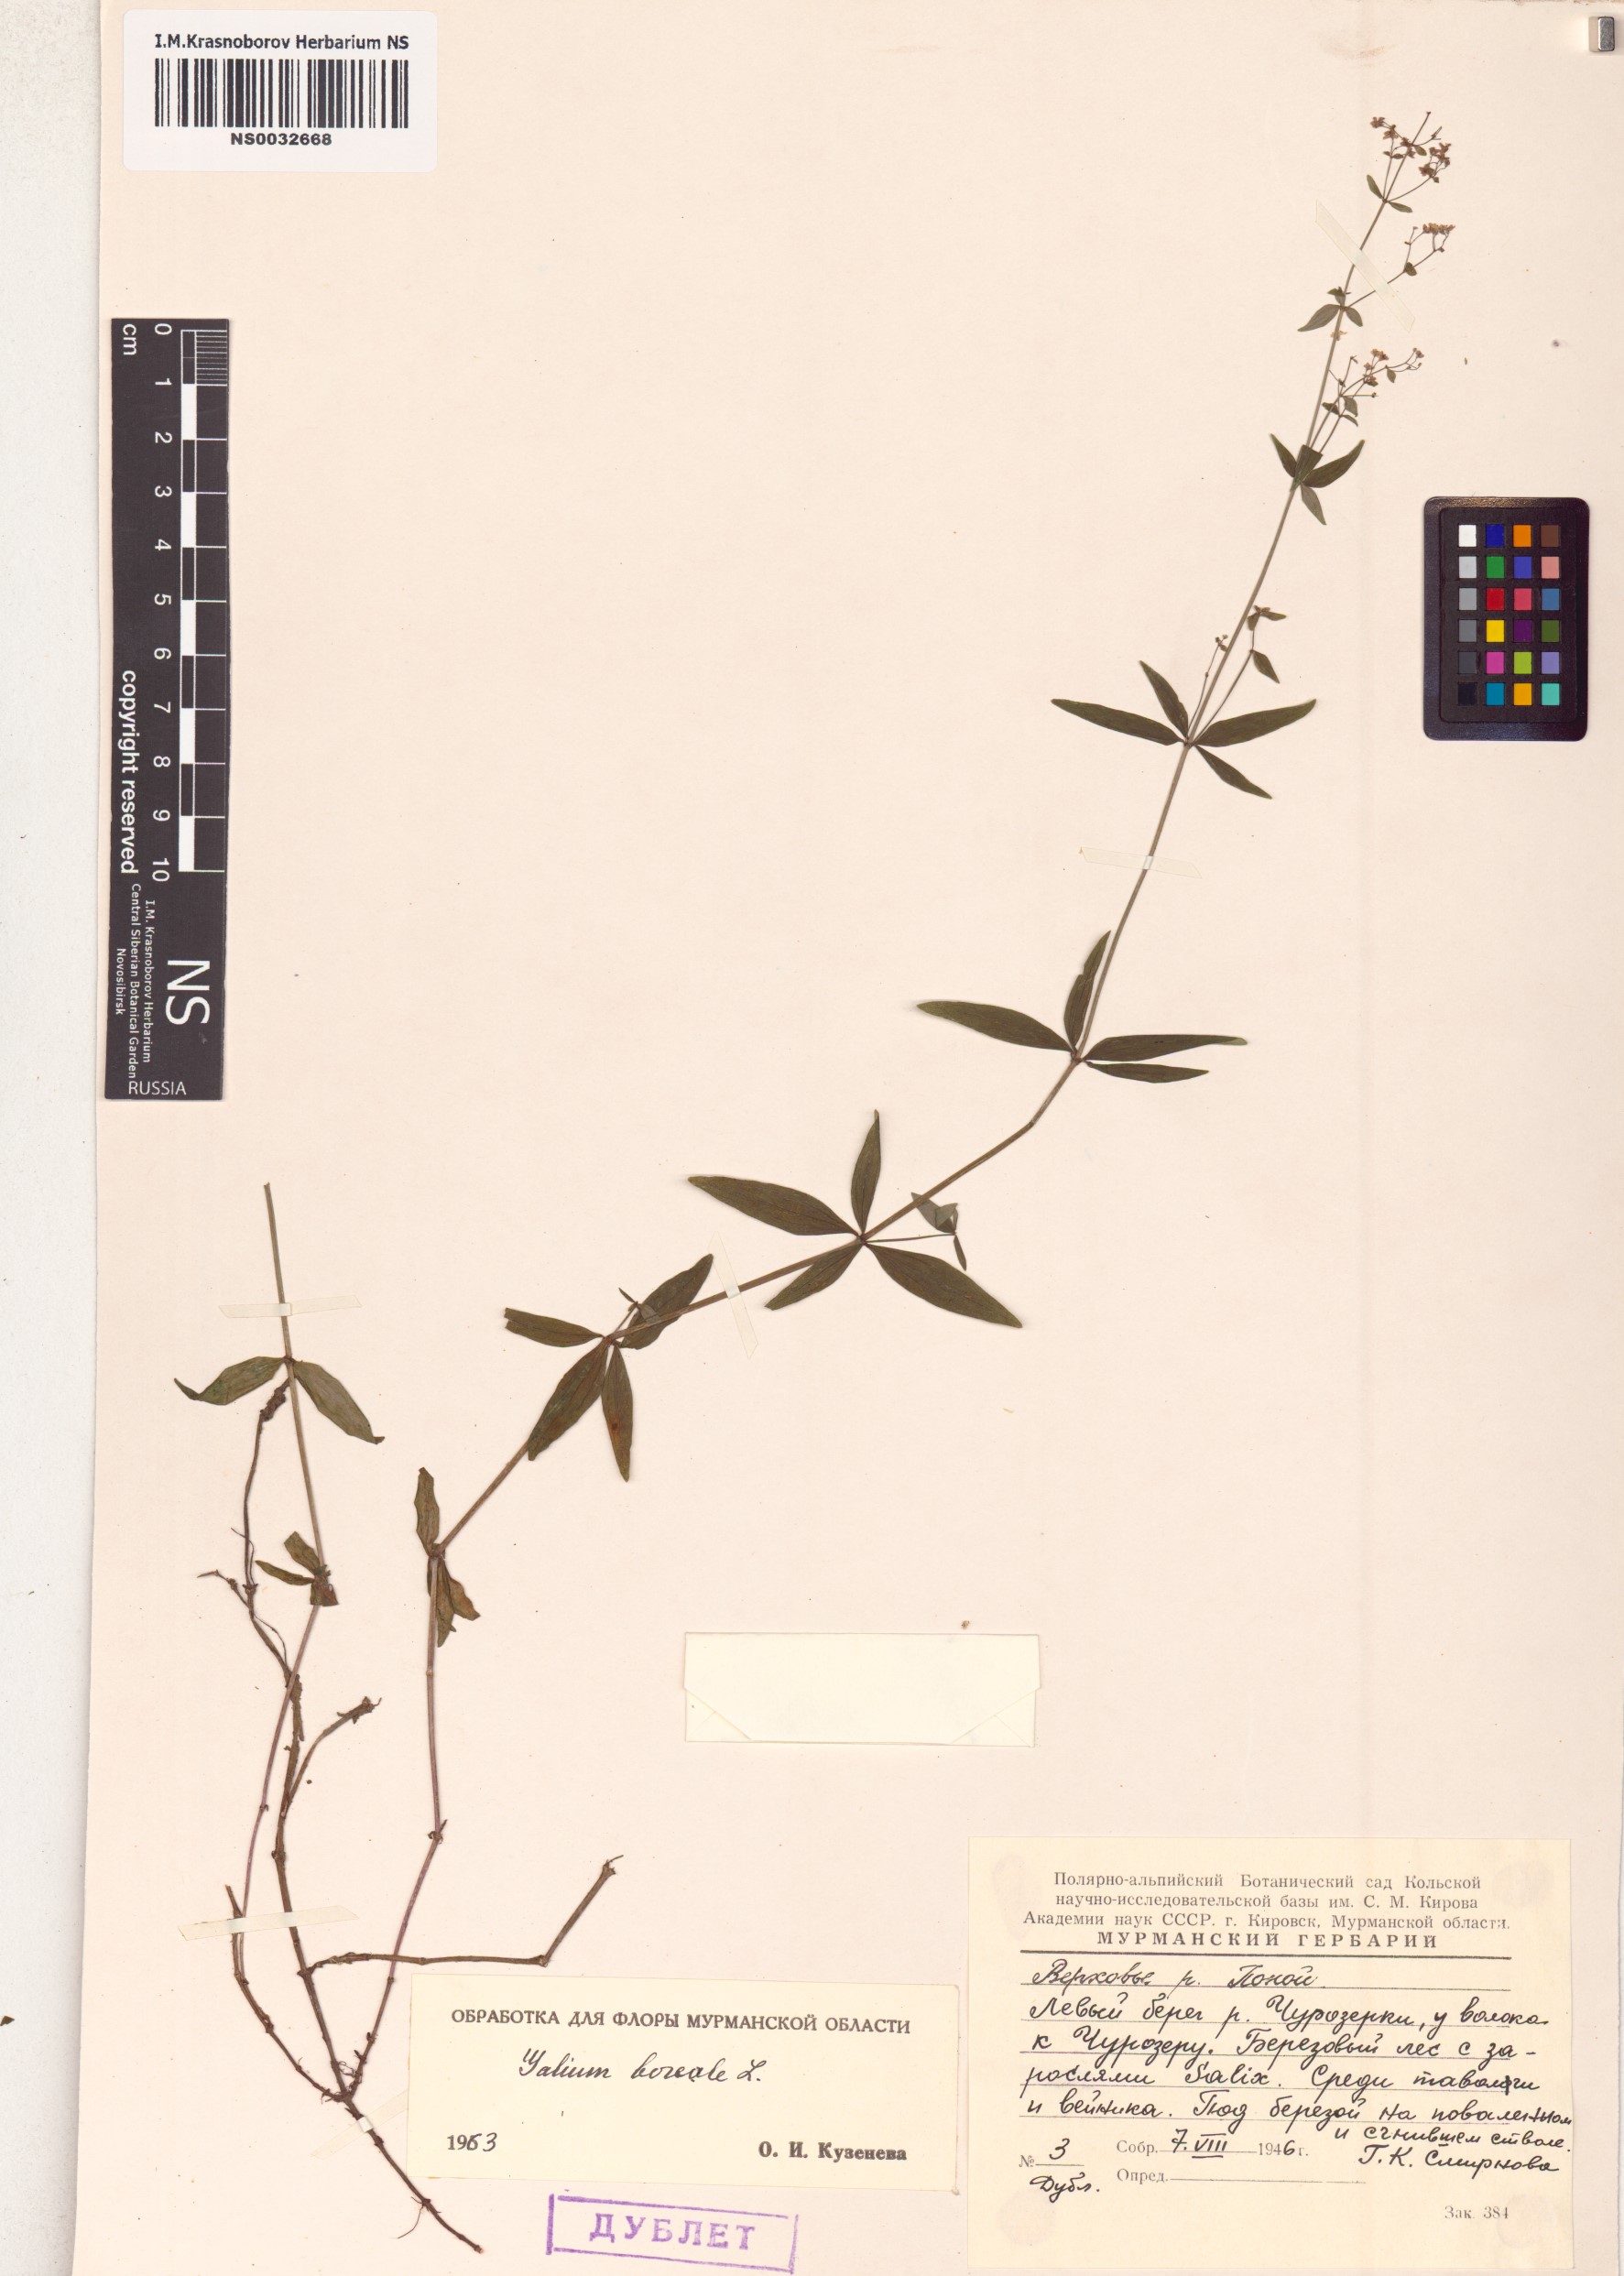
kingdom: Plantae
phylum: Tracheophyta
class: Magnoliopsida
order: Gentianales
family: Rubiaceae
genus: Galium
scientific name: Galium boreale
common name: Northern bedstraw
